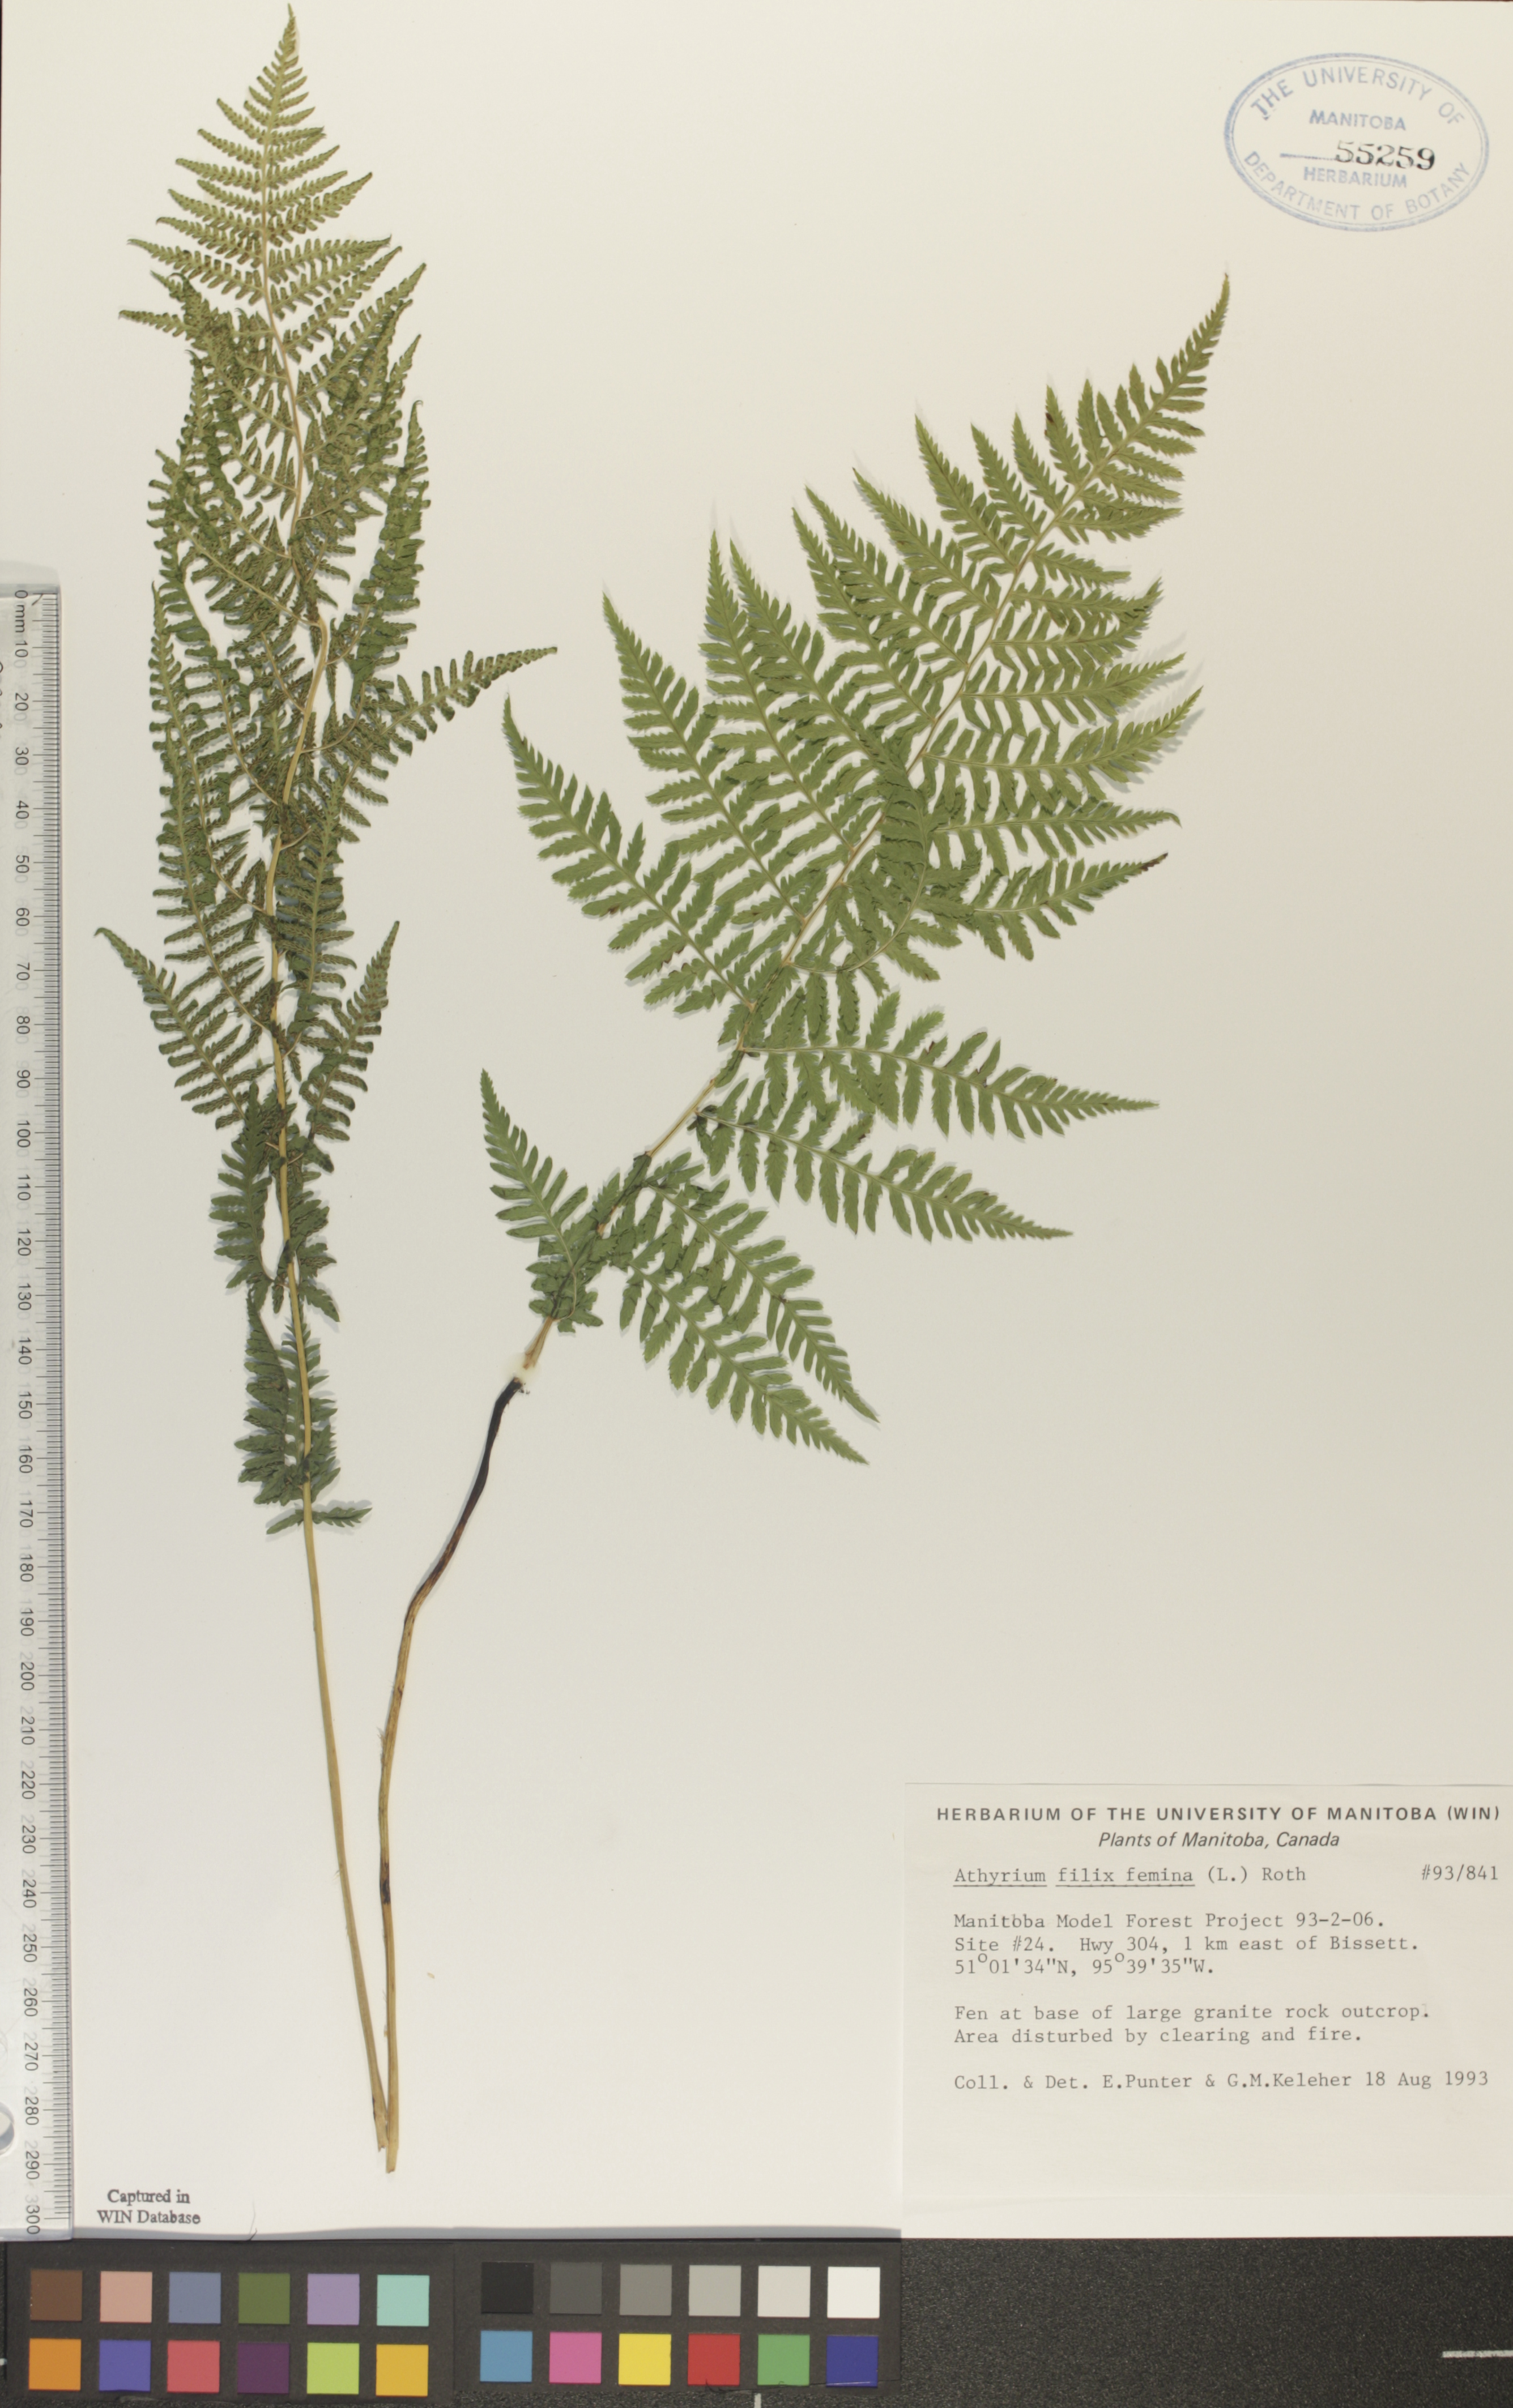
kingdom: Plantae
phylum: Tracheophyta
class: Polypodiopsida
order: Polypodiales
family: Athyriaceae
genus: Athyrium
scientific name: Athyrium filix-femina
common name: Lady fern
